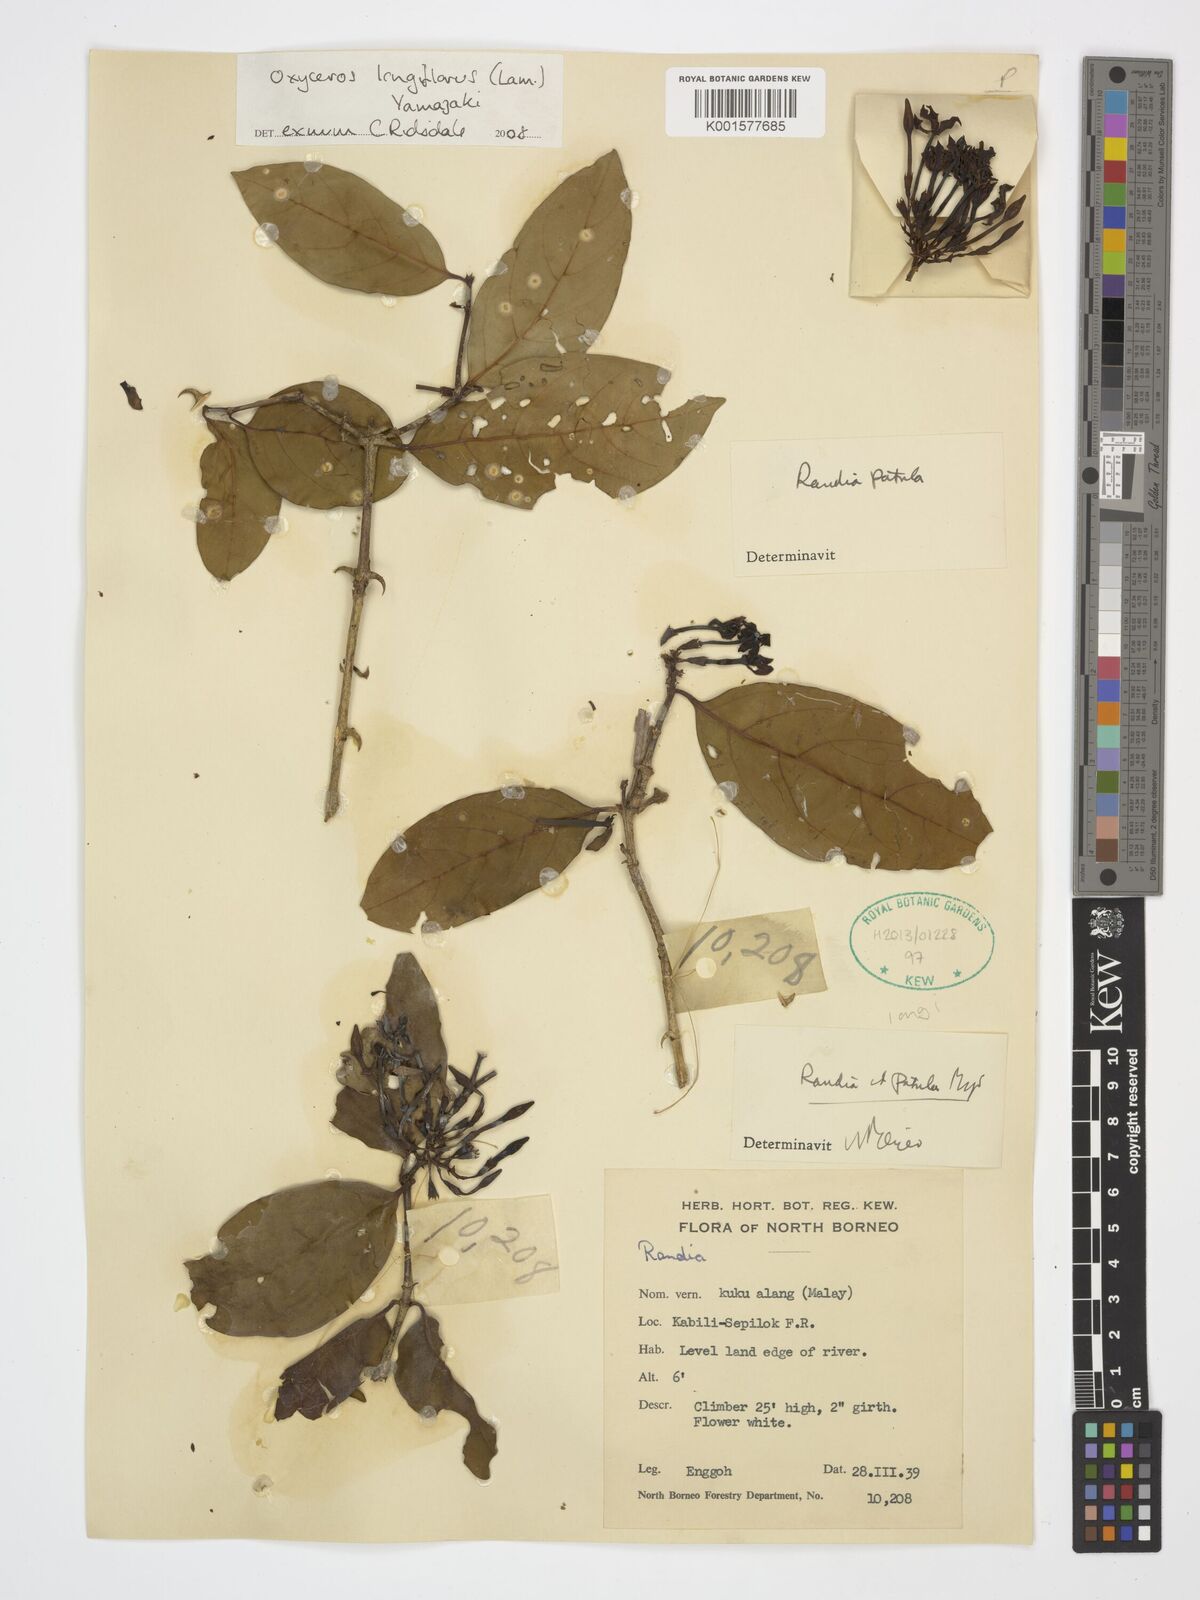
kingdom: Plantae
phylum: Tracheophyta
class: Magnoliopsida
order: Gentianales
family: Rubiaceae
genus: Oxyceros
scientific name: Oxyceros longiflorus
